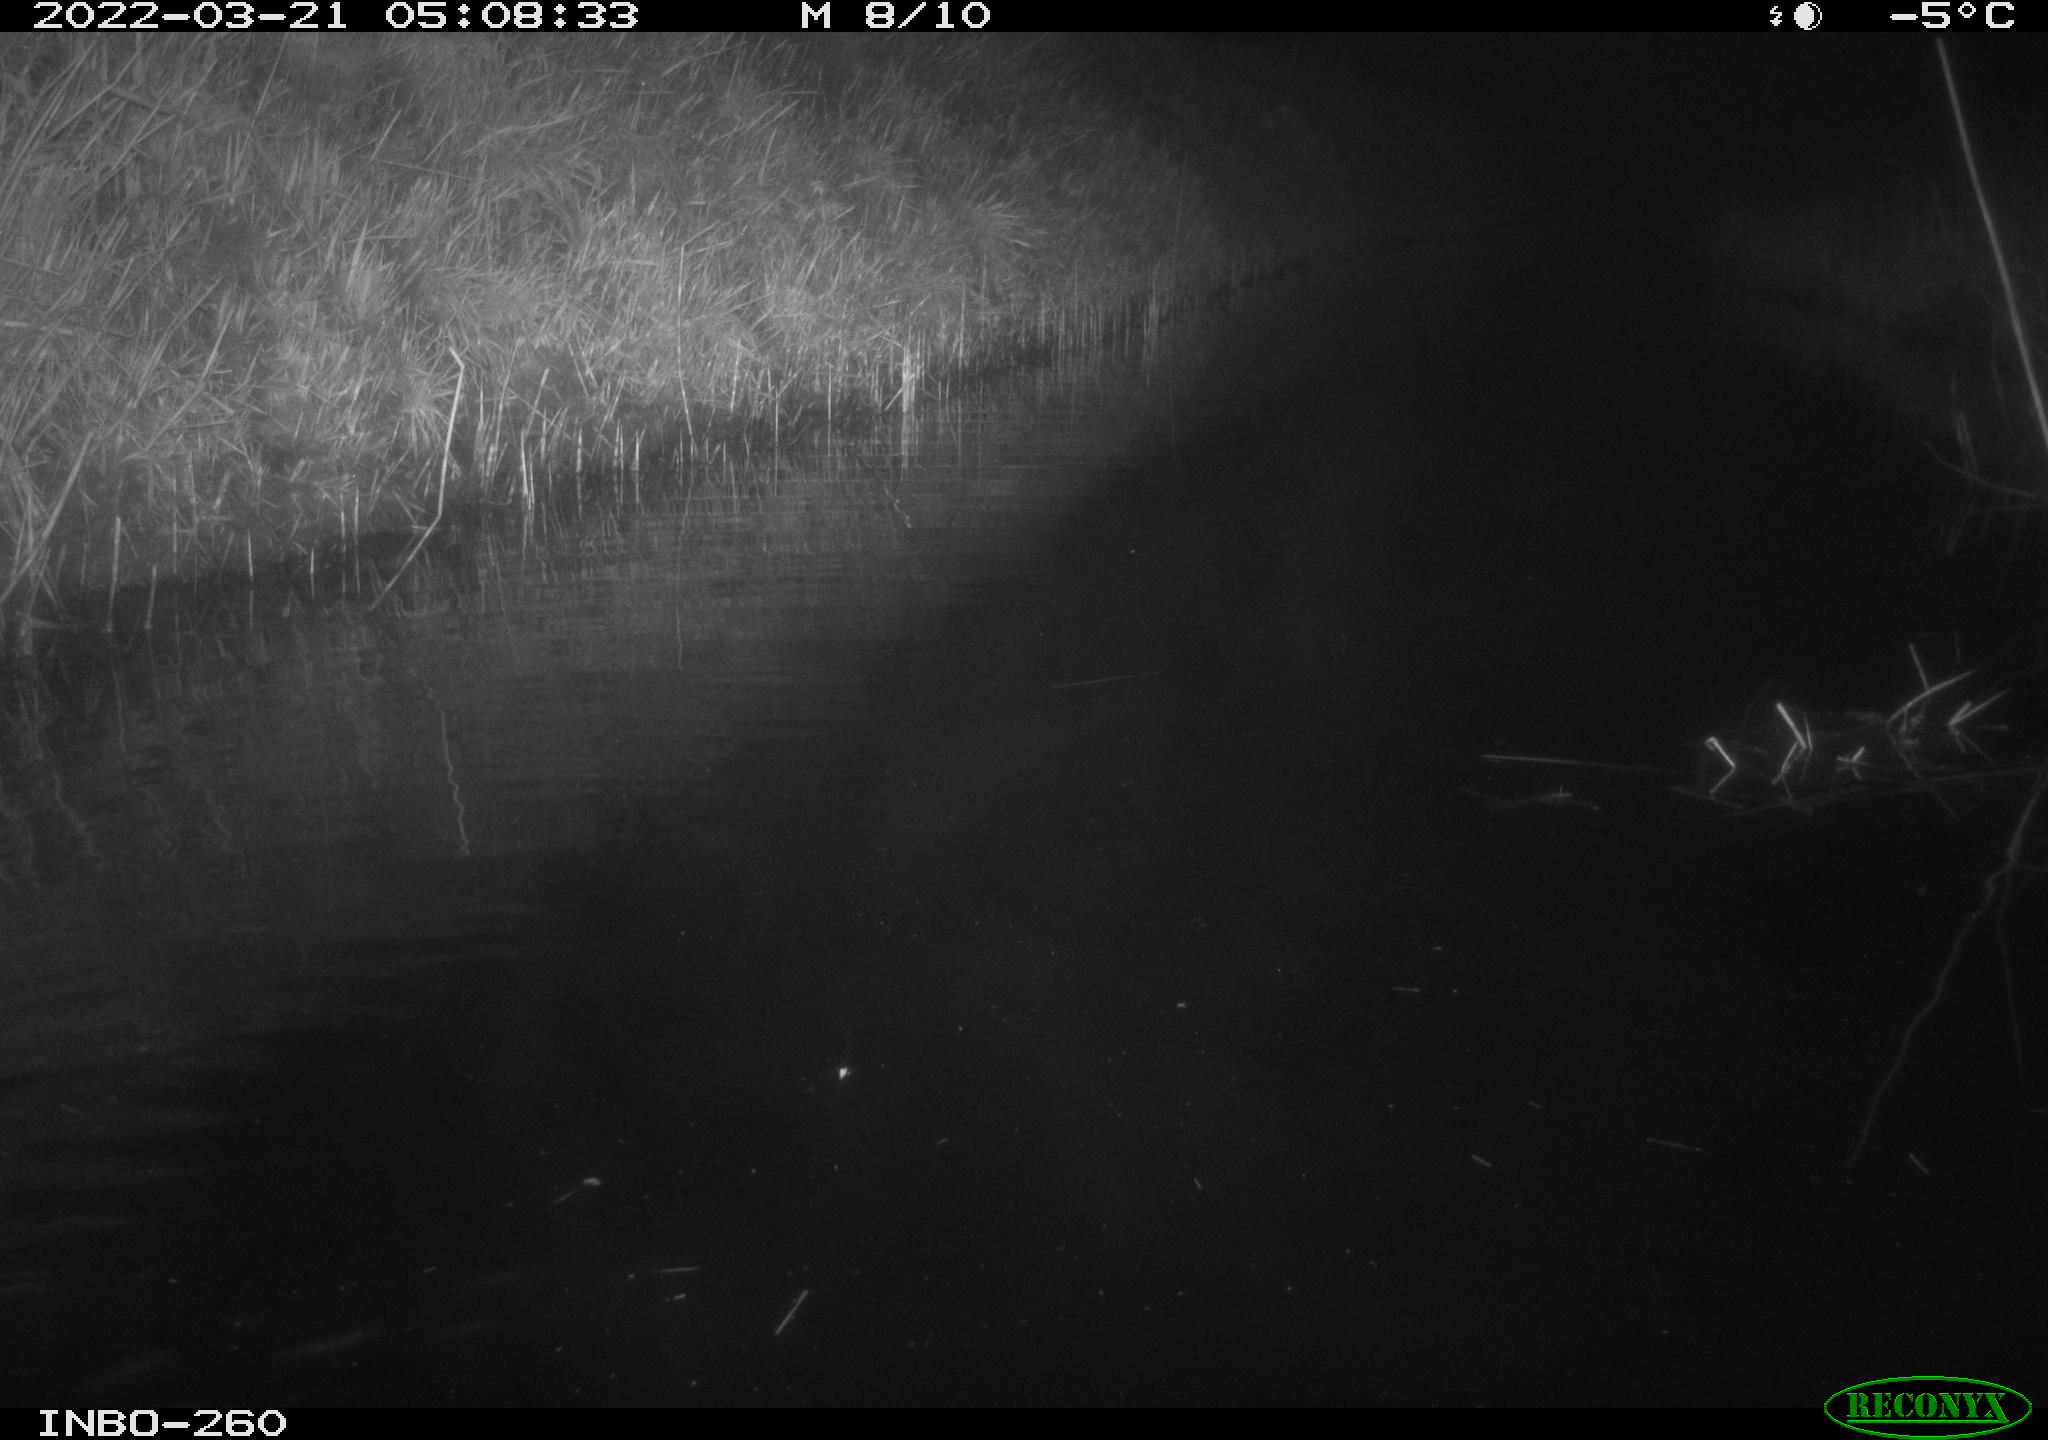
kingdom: Animalia
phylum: Chordata
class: Mammalia
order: Rodentia
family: Cricetidae
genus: Ondatra
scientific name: Ondatra zibethicus
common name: Muskrat
